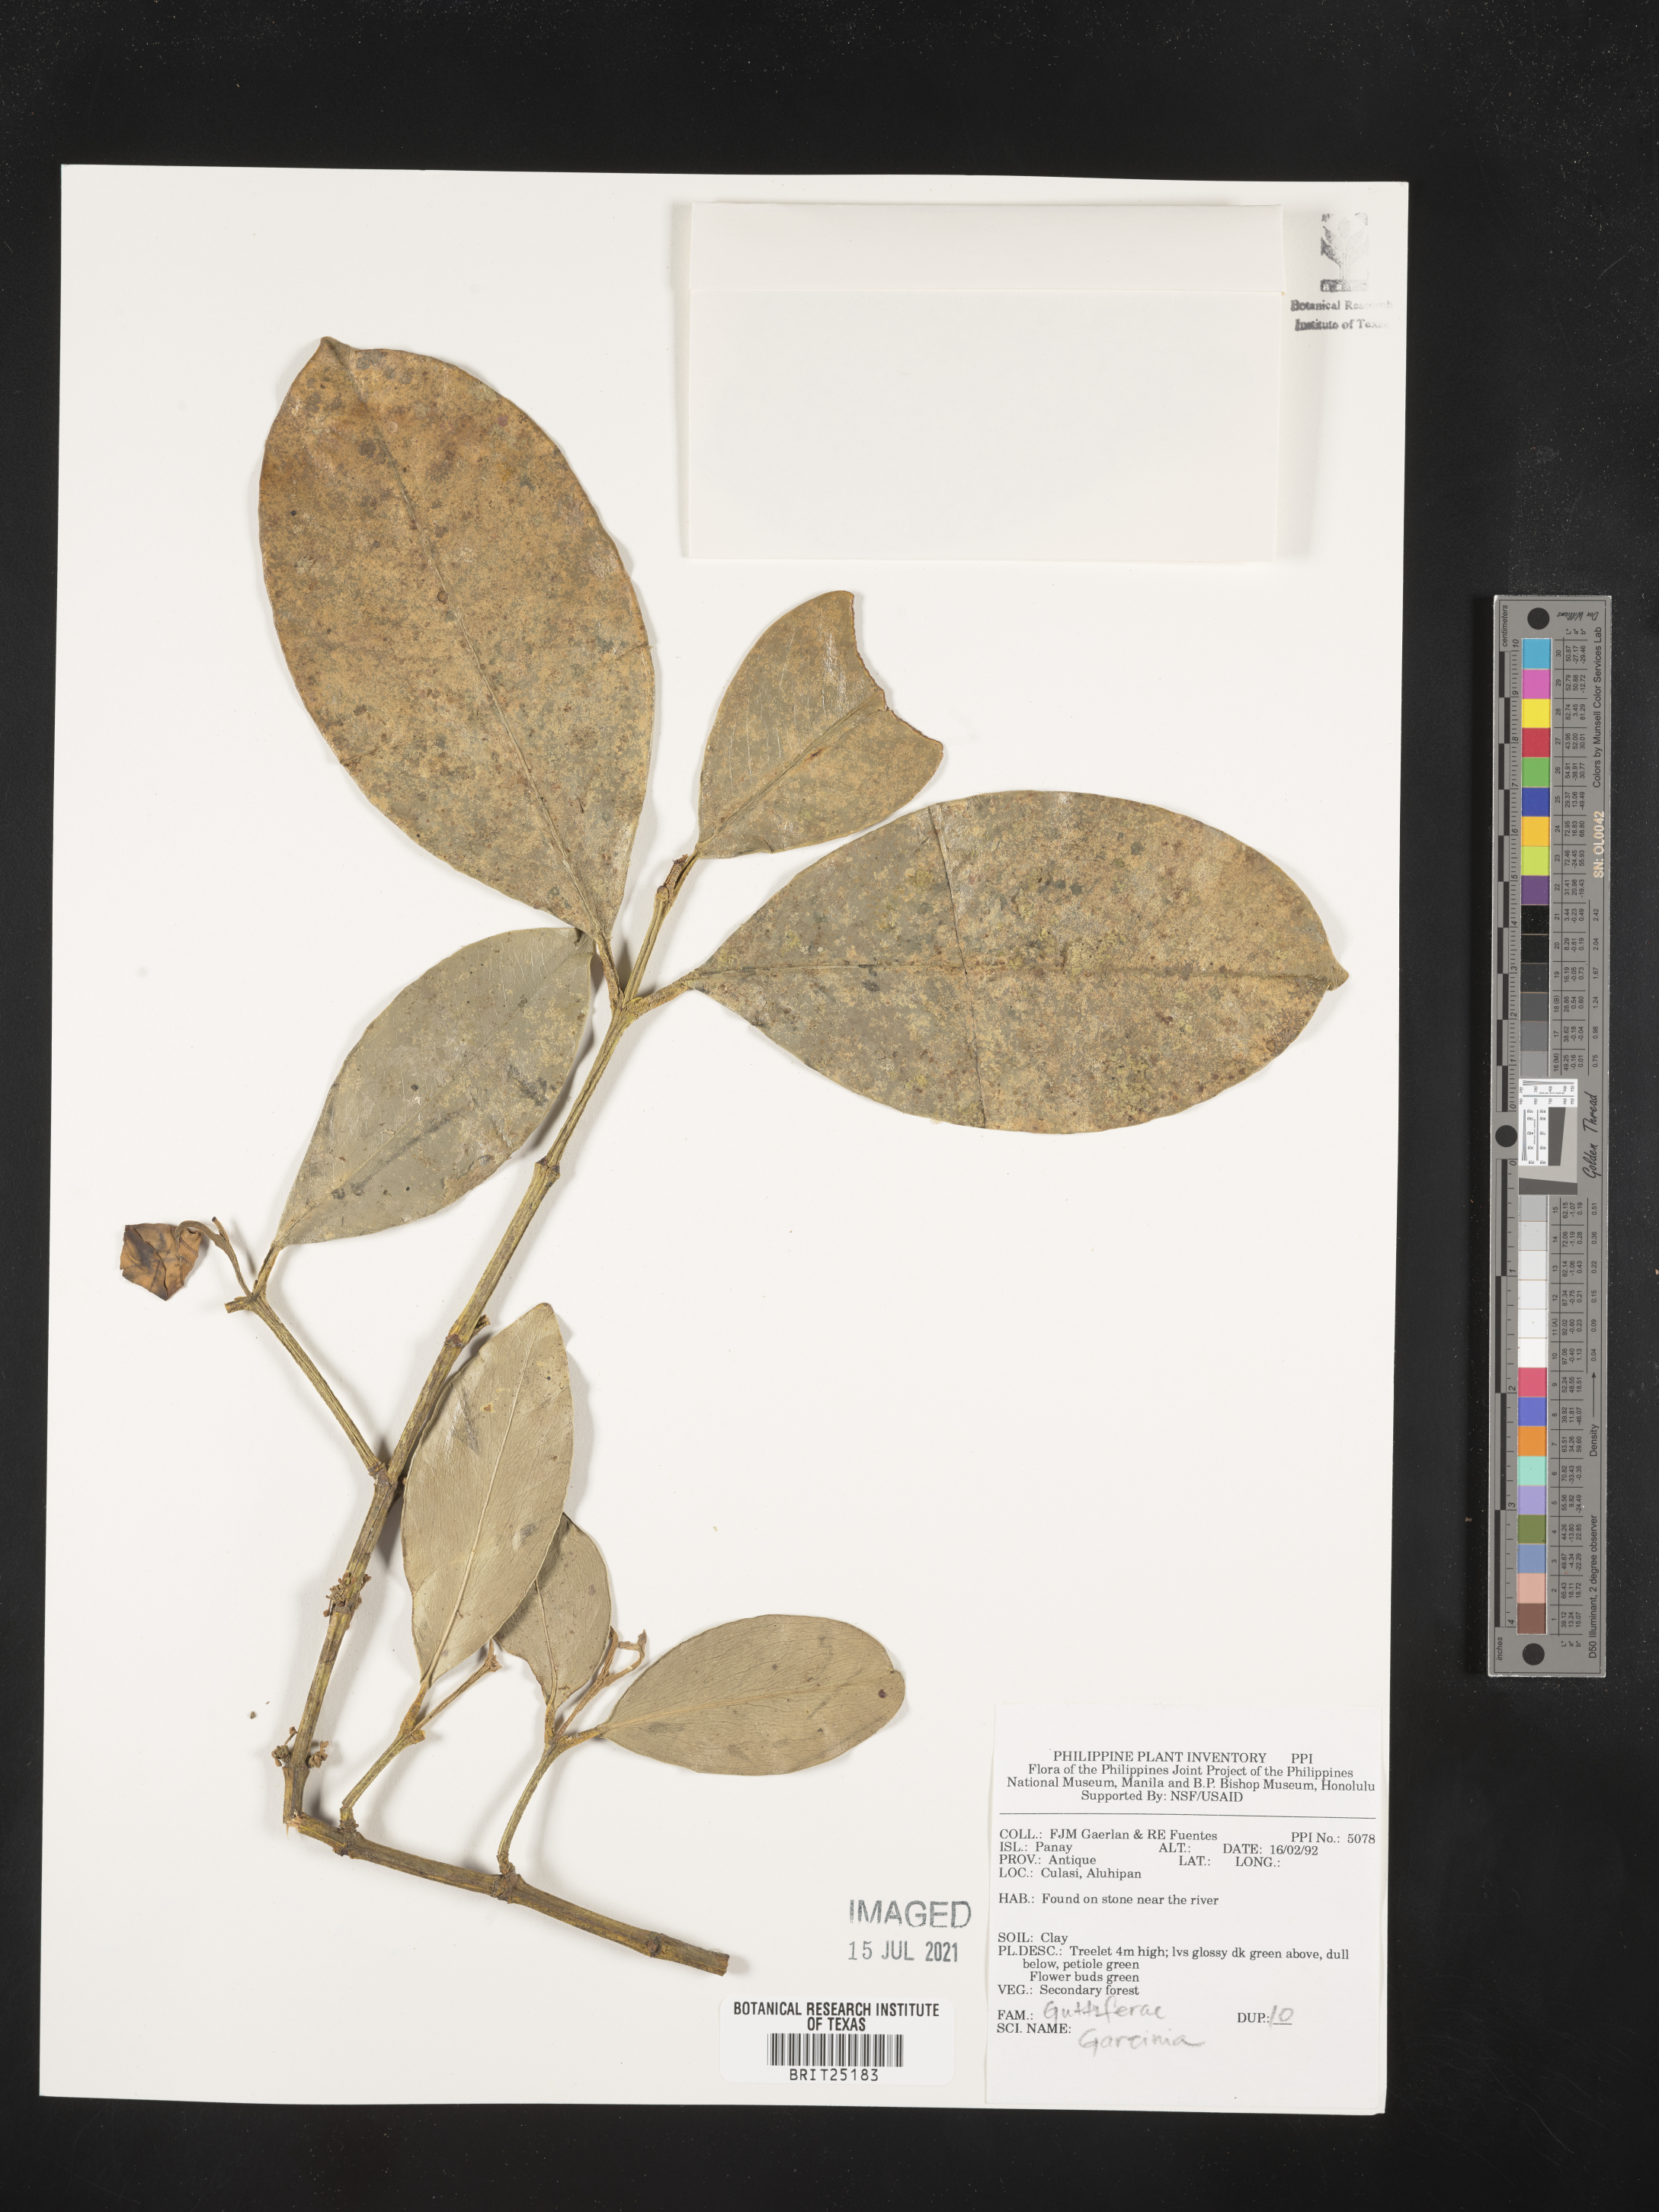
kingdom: Plantae
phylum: Tracheophyta
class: Magnoliopsida
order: Malpighiales
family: Clusiaceae
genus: Garcinia
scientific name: Garcinia
